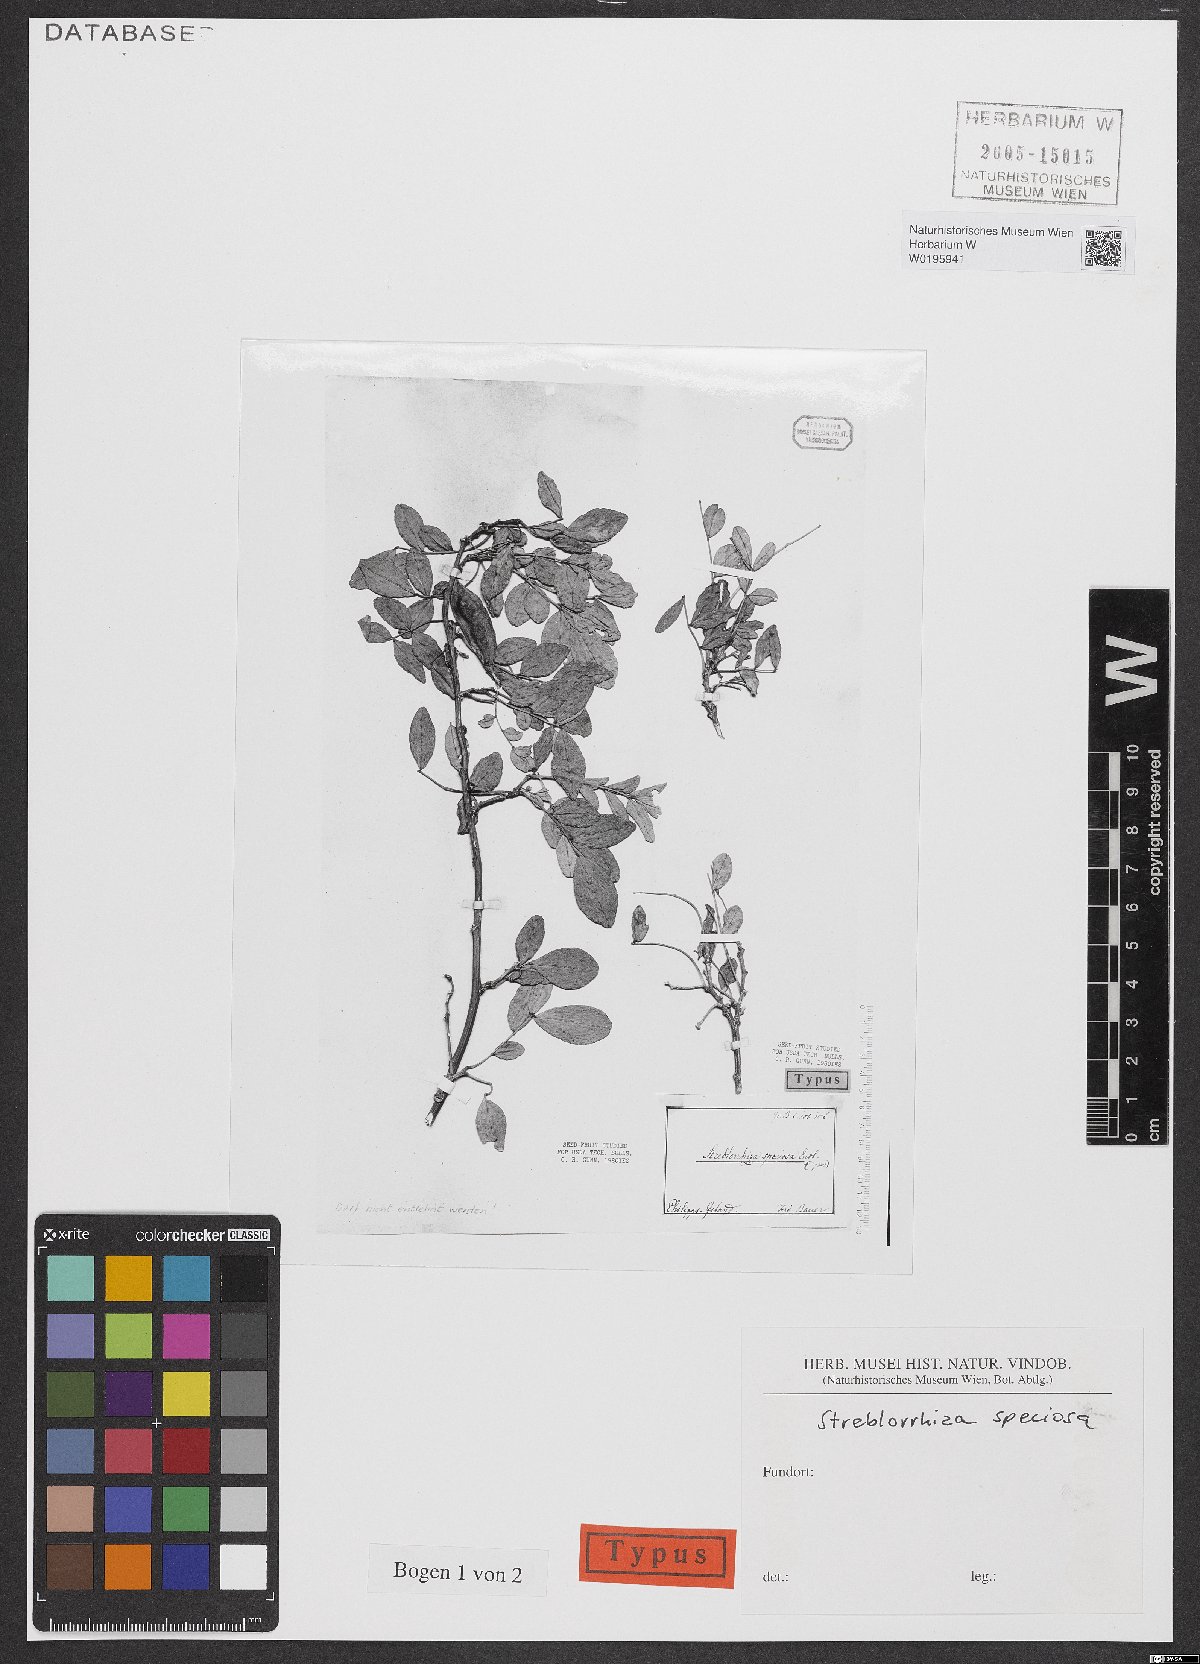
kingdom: Plantae
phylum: Tracheophyta
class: Magnoliopsida
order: Fabales
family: Fabaceae
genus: Streblorrhiza
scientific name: Streblorrhiza speciosa
